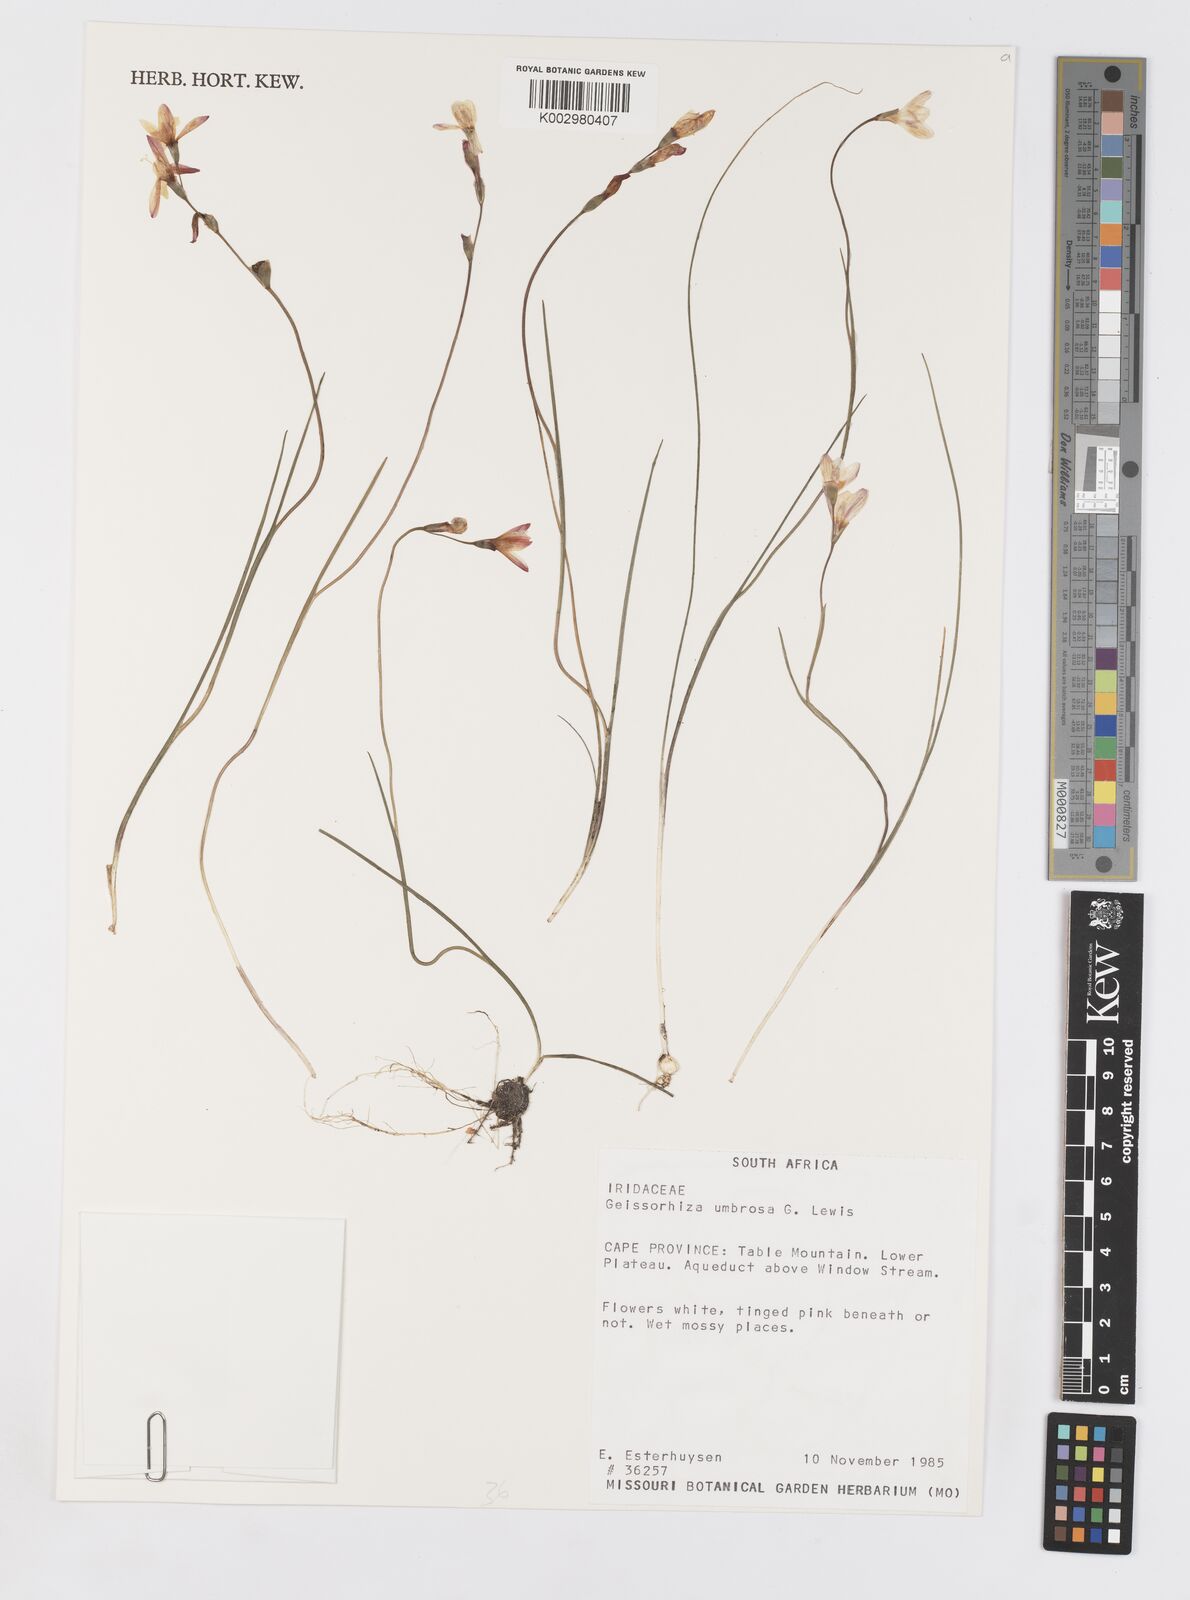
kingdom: Plantae
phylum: Tracheophyta
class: Liliopsida
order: Asparagales
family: Iridaceae
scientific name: Iridaceae
